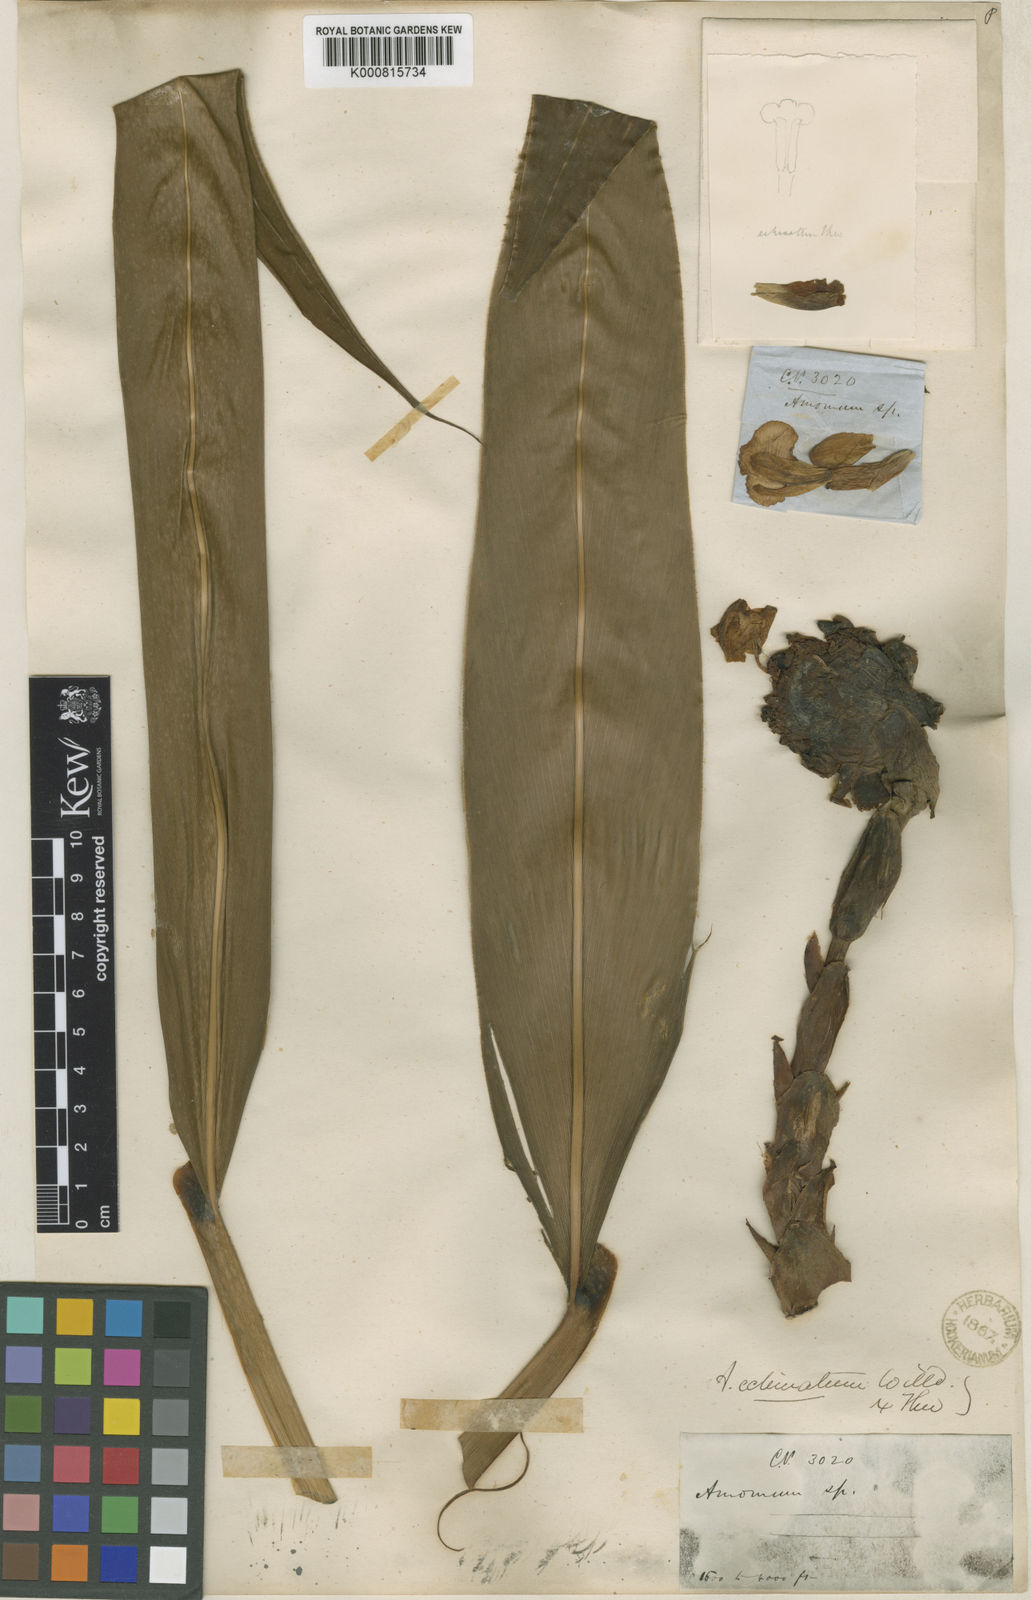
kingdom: Plantae
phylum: Tracheophyta
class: Liliopsida
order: Zingiberales
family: Zingiberaceae
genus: Meistera
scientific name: Meistera echinocarpa
